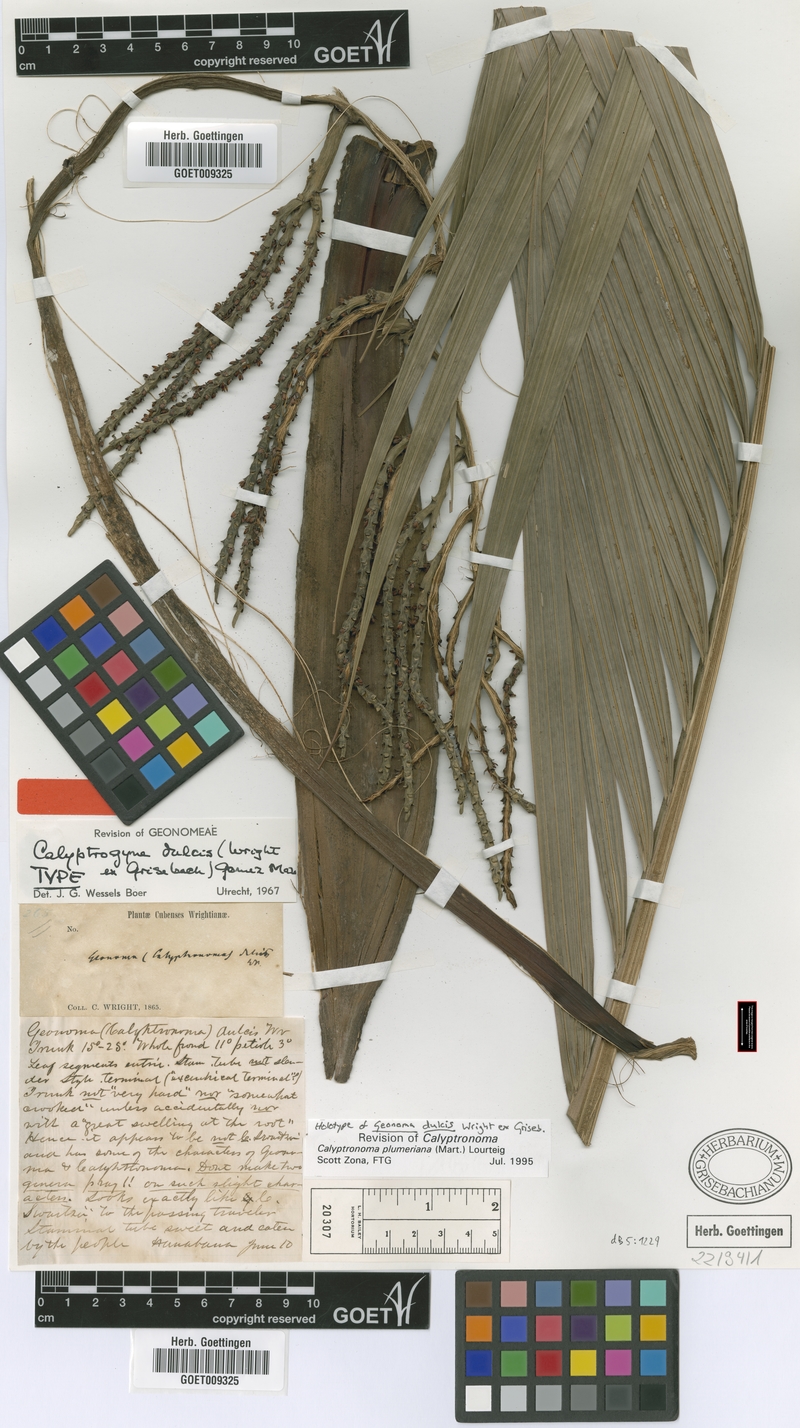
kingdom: Plantae
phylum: Tracheophyta
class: Liliopsida
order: Arecales
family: Arecaceae
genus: Calyptronoma
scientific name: Calyptronoma plumeriana
